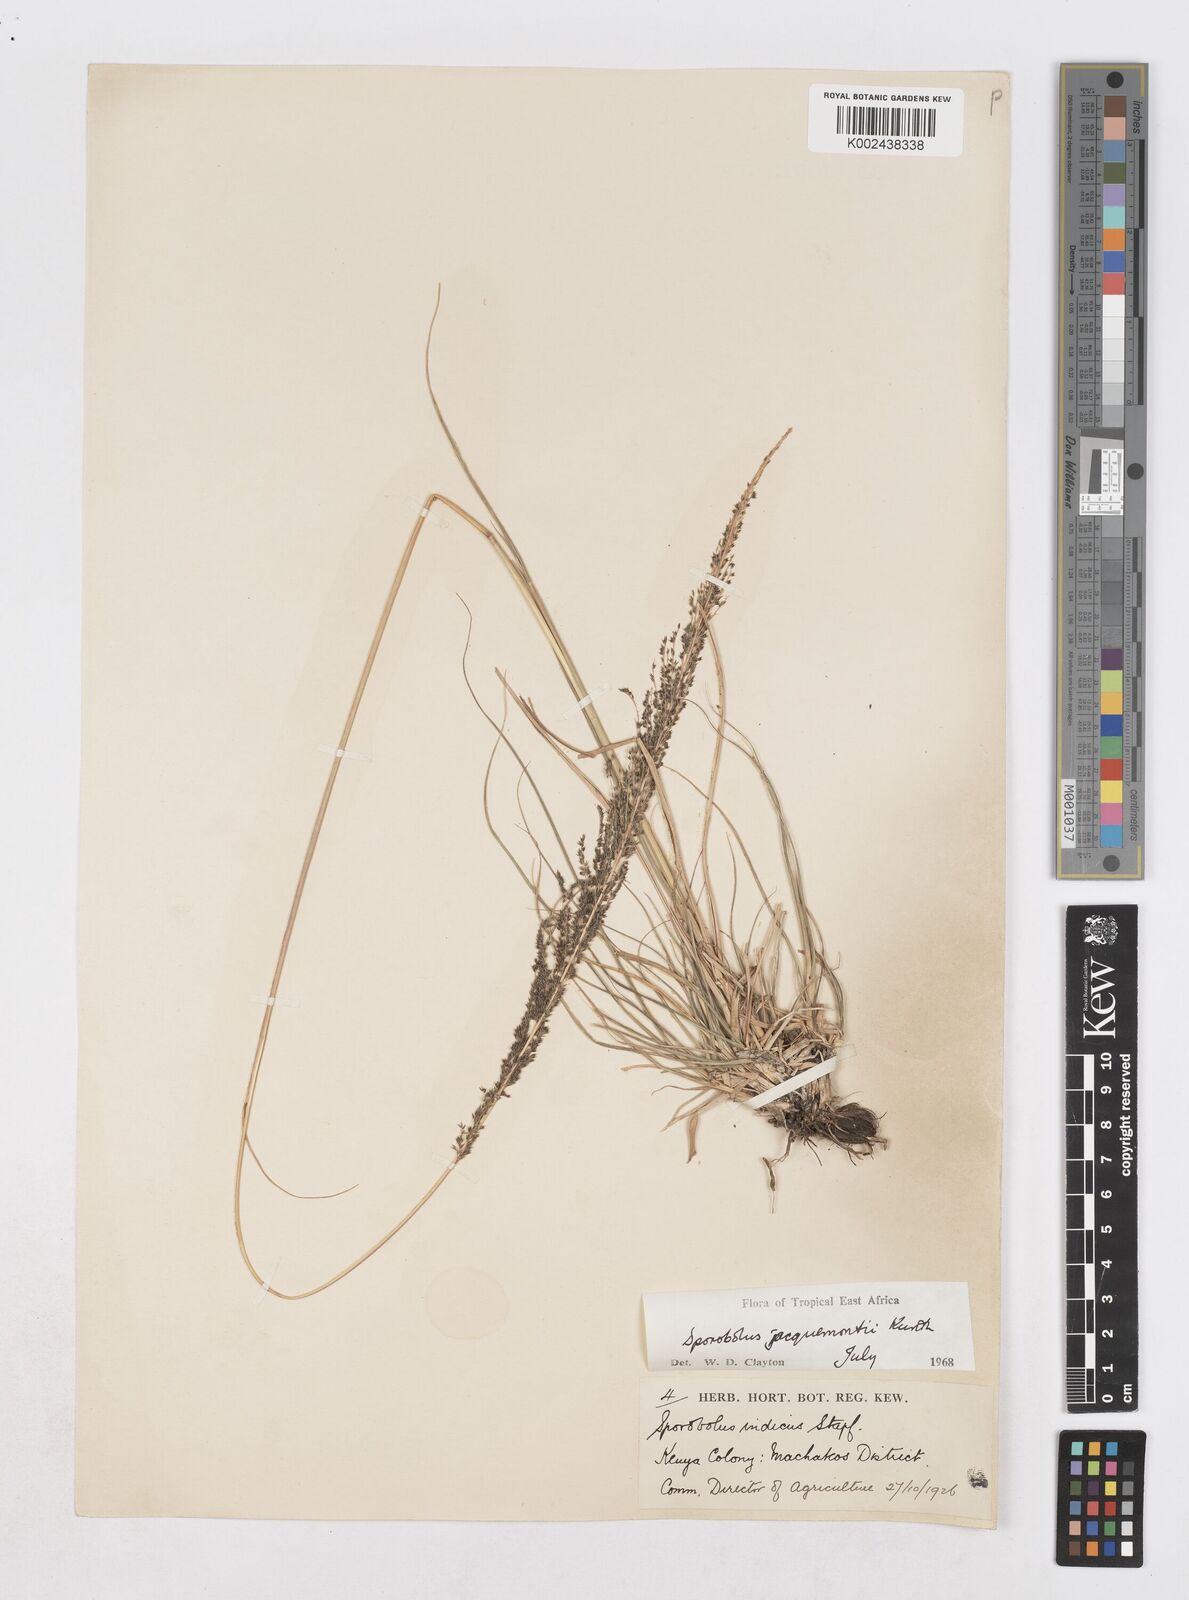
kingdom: Plantae
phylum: Tracheophyta
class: Liliopsida
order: Poales
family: Poaceae
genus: Sporobolus
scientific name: Sporobolus pyramidalis
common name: West indian dropseed
